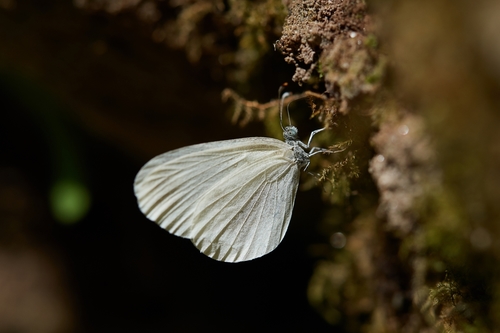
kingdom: Animalia
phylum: Arthropoda
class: Insecta
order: Lepidoptera
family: Pieridae
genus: Leptidea
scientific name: Leptidea sinapis
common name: Wood white
